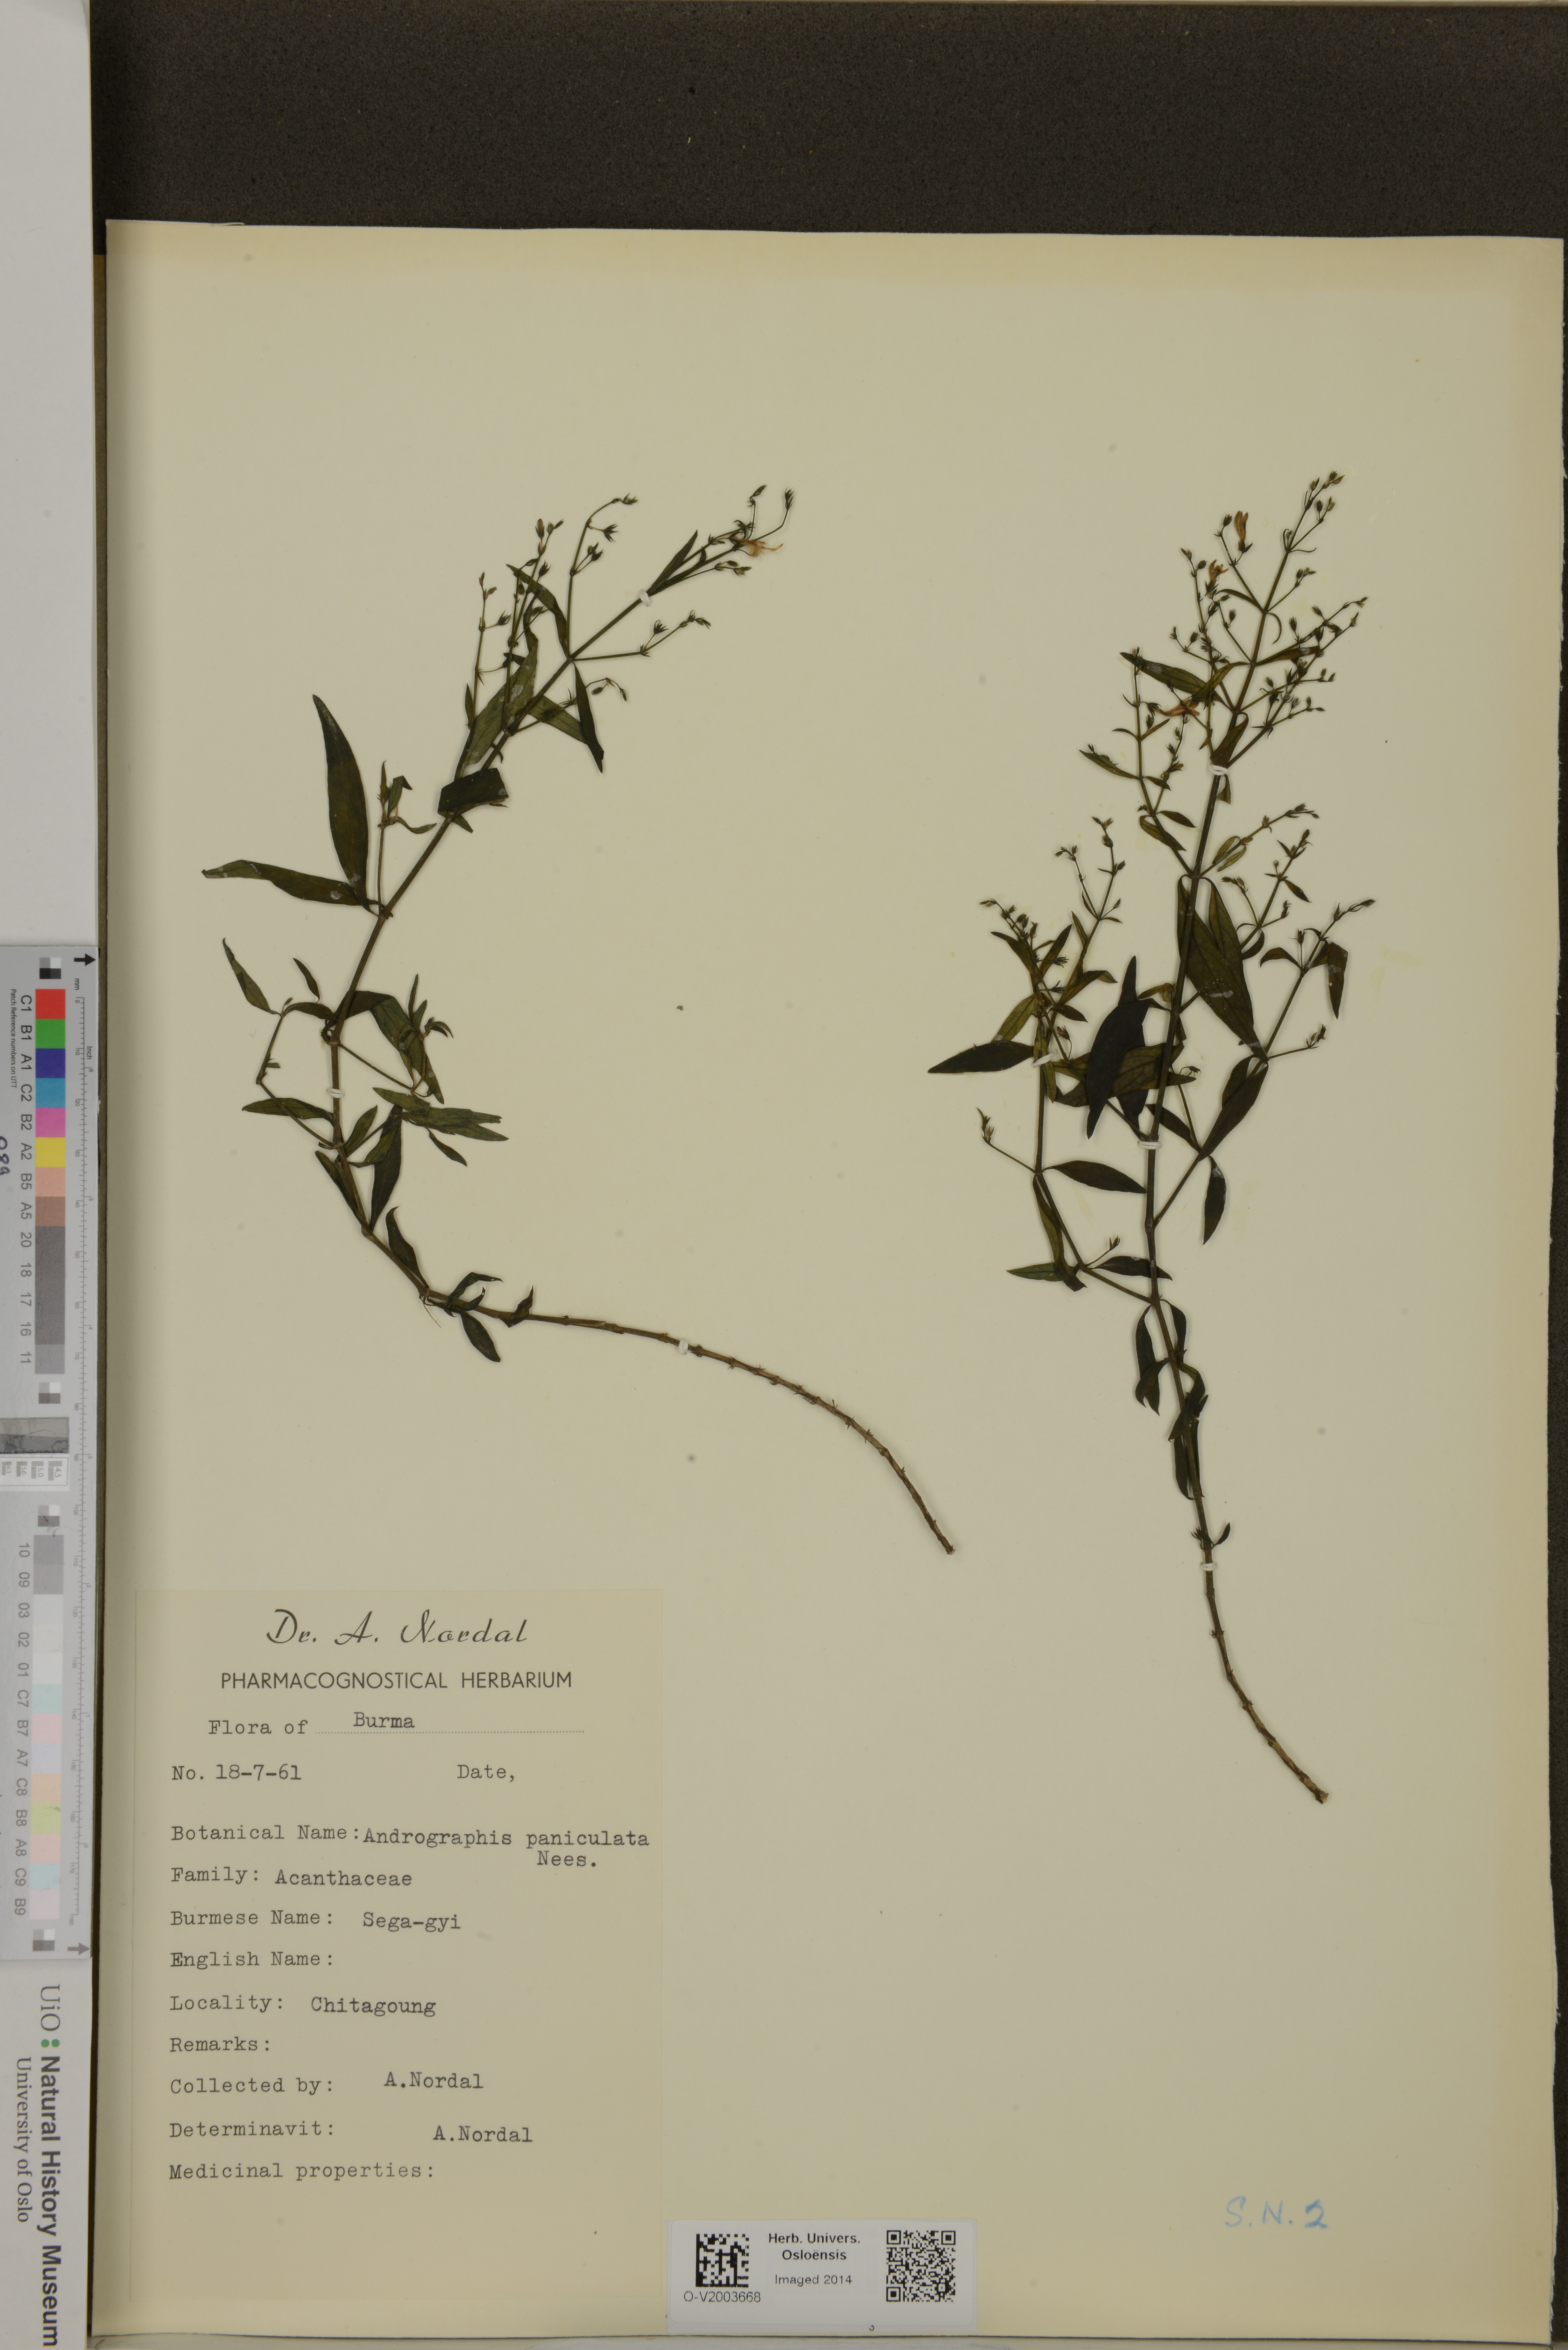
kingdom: Plantae
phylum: Tracheophyta
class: Magnoliopsida
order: Lamiales
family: Acanthaceae
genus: Andrographis
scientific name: Andrographis paniculata
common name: Green chireta
